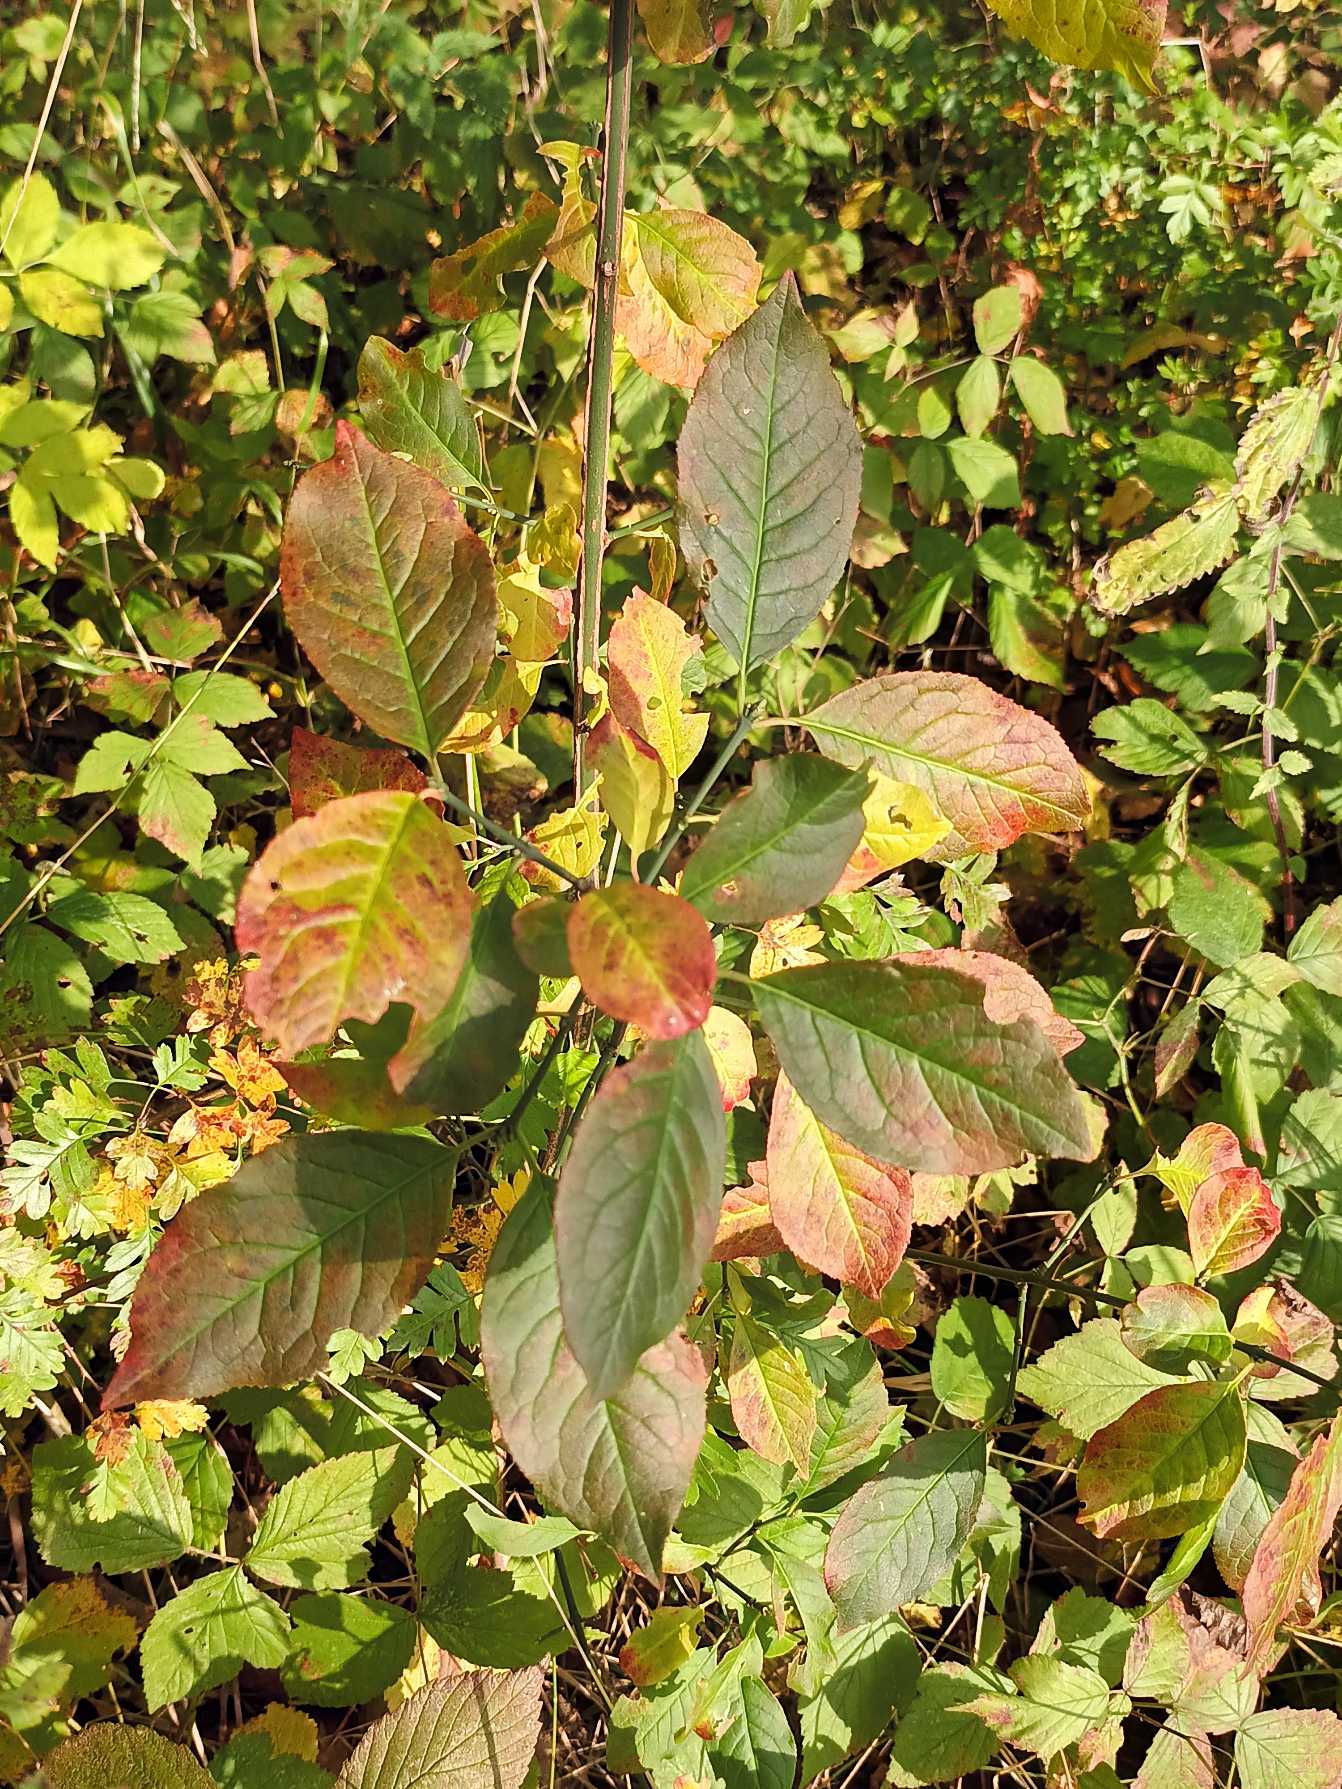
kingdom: Plantae
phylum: Tracheophyta
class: Magnoliopsida
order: Celastrales
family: Celastraceae
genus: Euonymus
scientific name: Euonymus europaeus
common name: Benved
